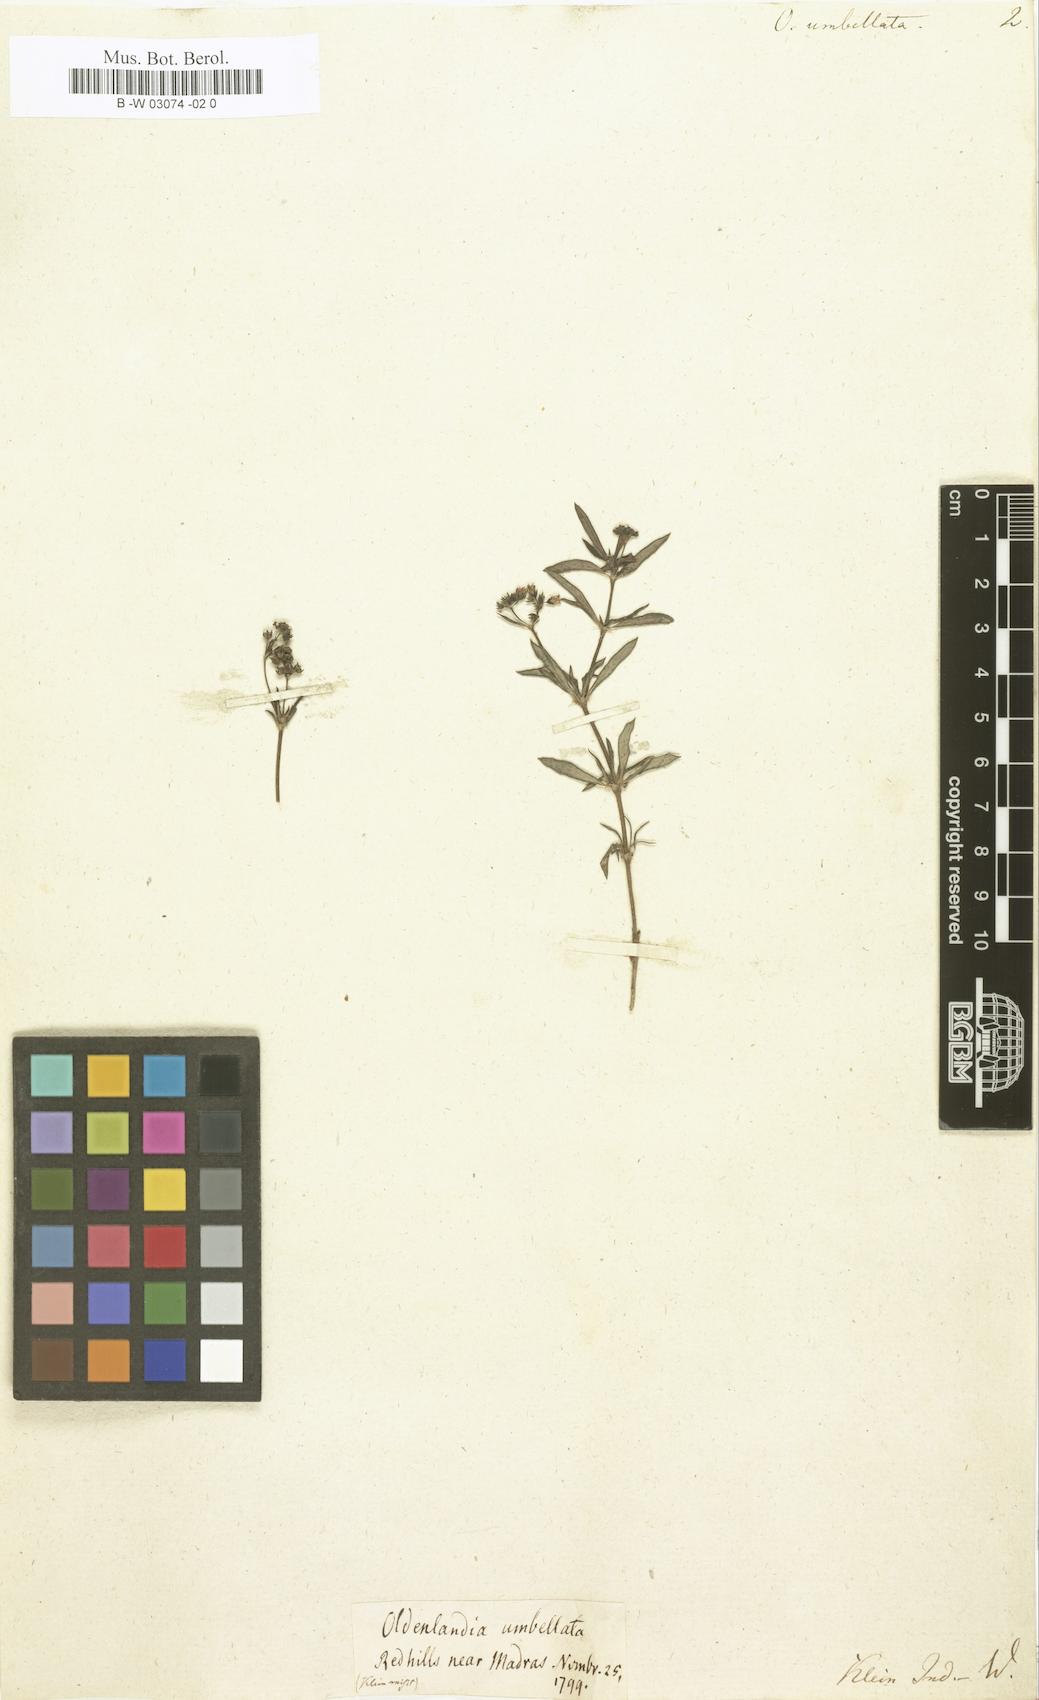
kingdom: Plantae
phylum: Tracheophyta
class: Magnoliopsida
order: Gentianales
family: Rubiaceae
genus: Oldenlandia
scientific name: Oldenlandia umbellata
